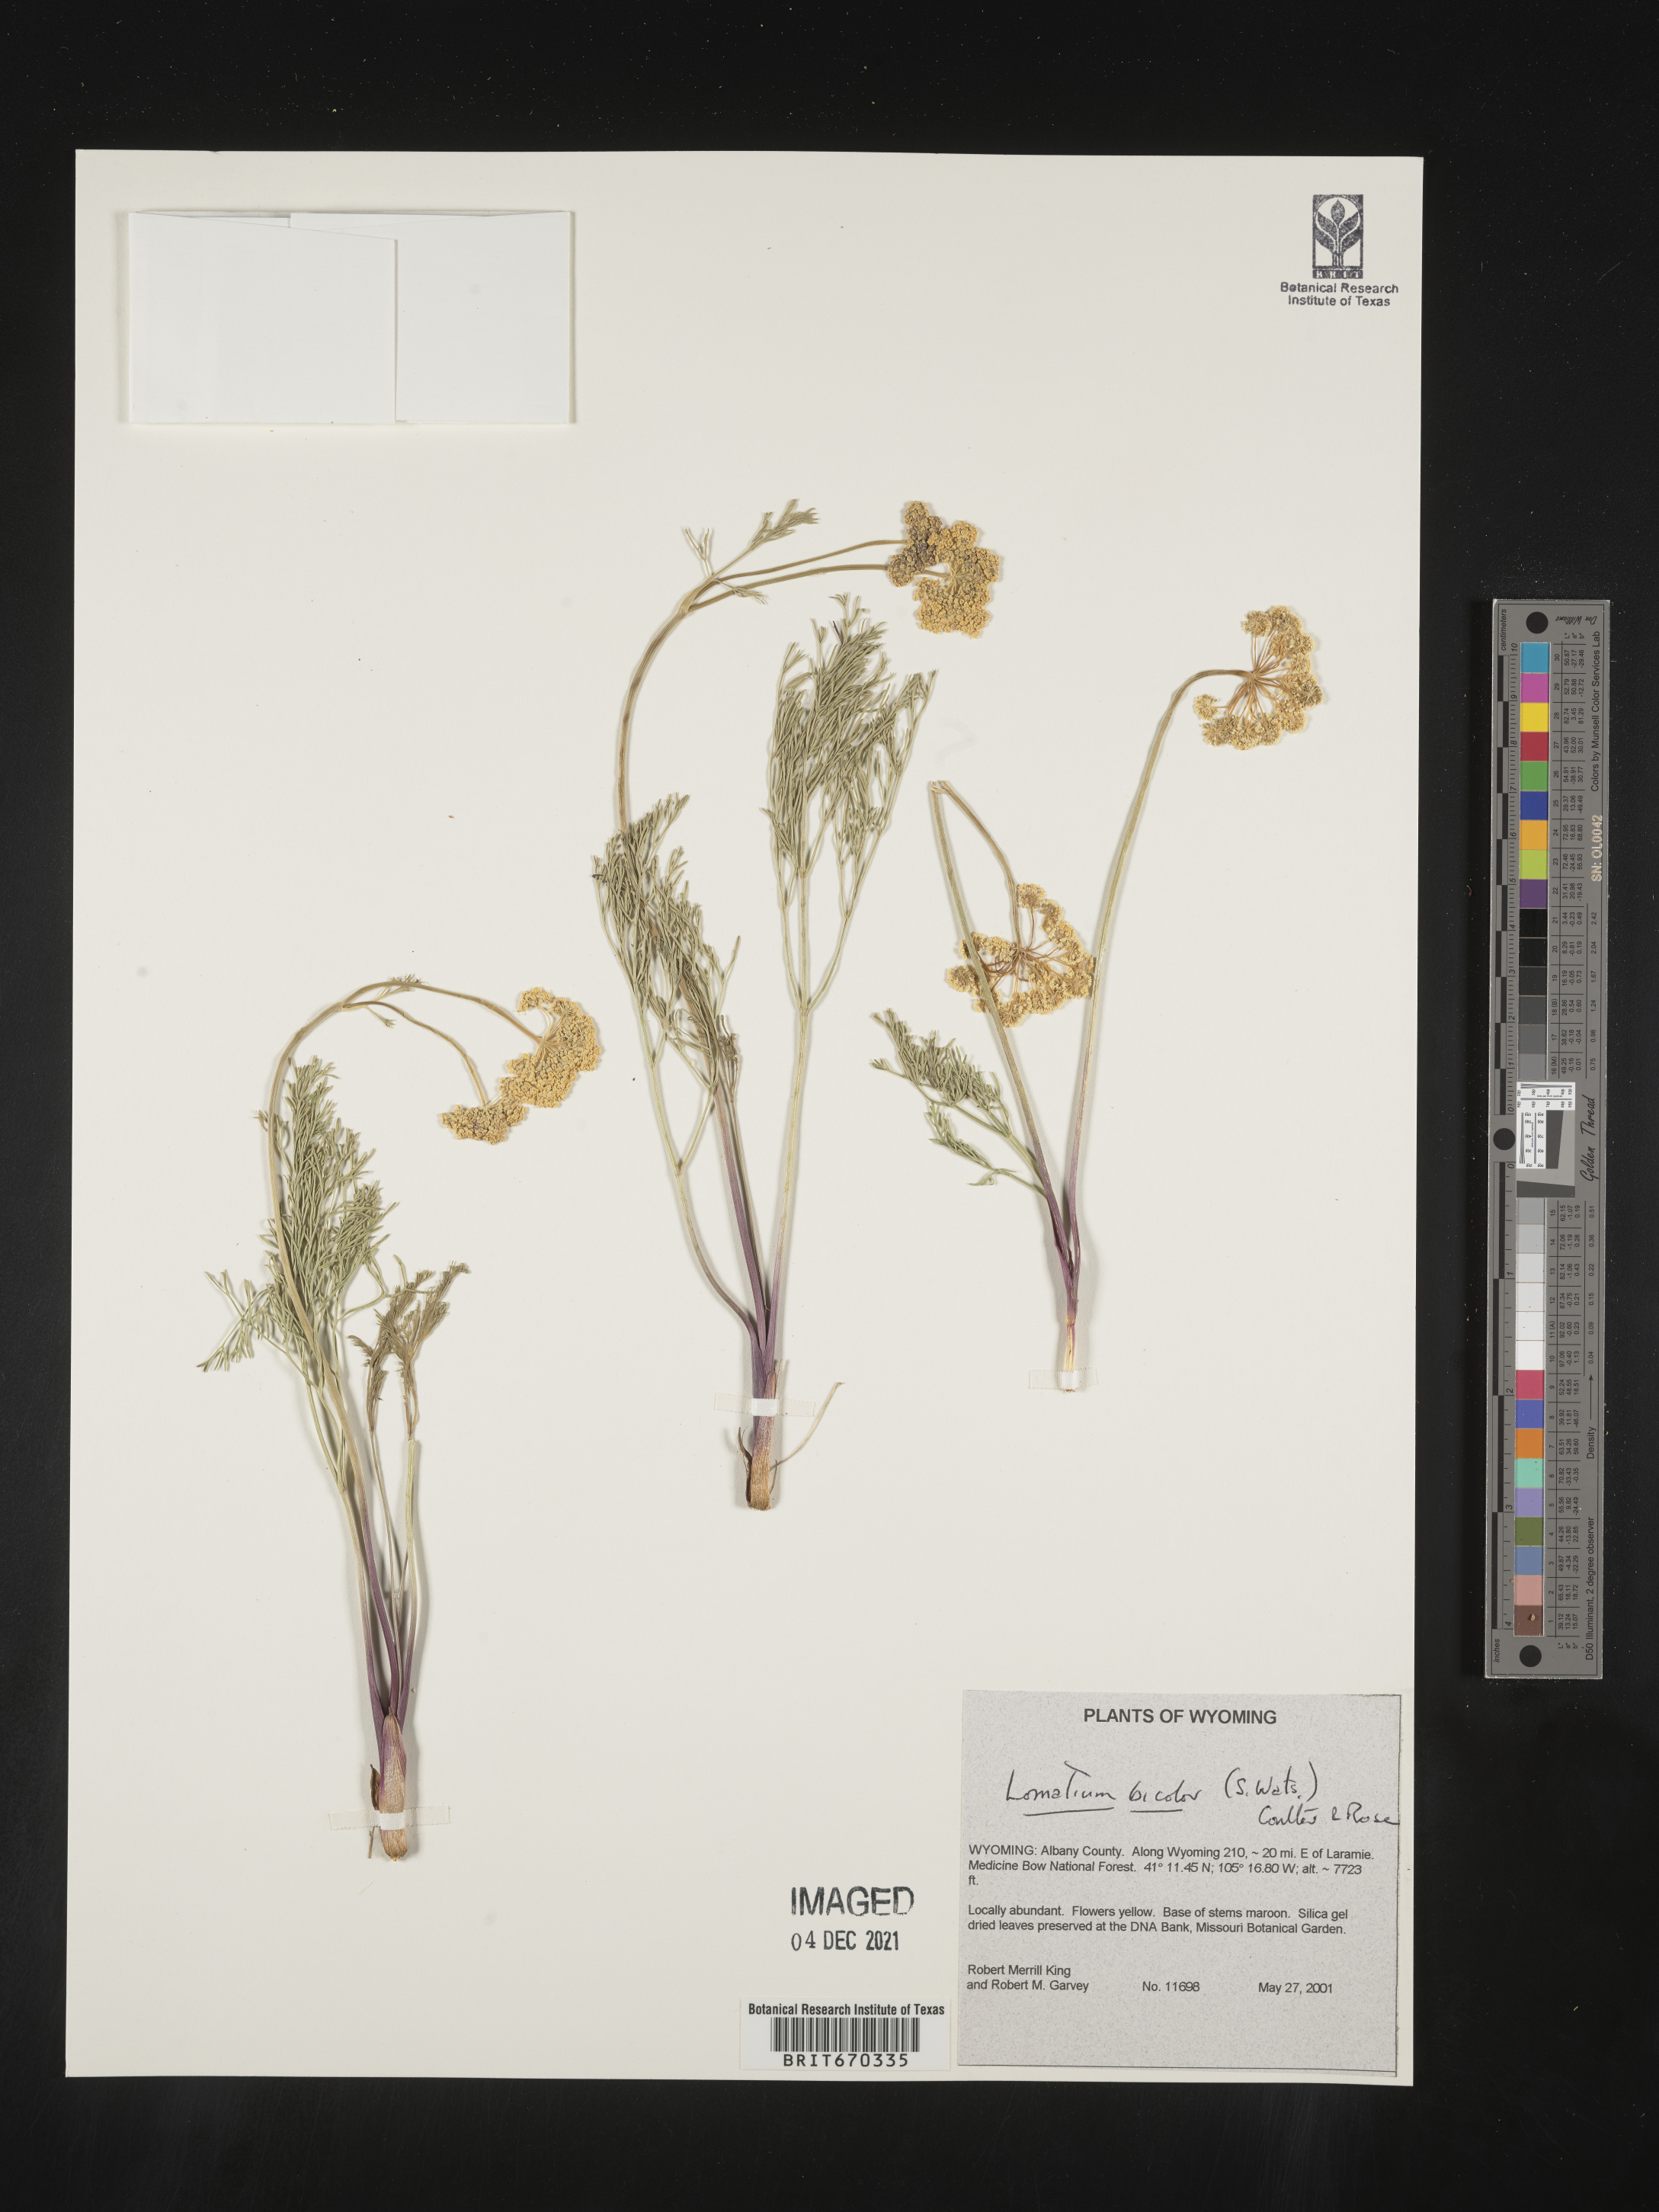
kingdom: Plantae
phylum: Tracheophyta
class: Magnoliopsida
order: Apiales
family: Apiaceae
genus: Lomatium
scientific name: Lomatium bicolor
